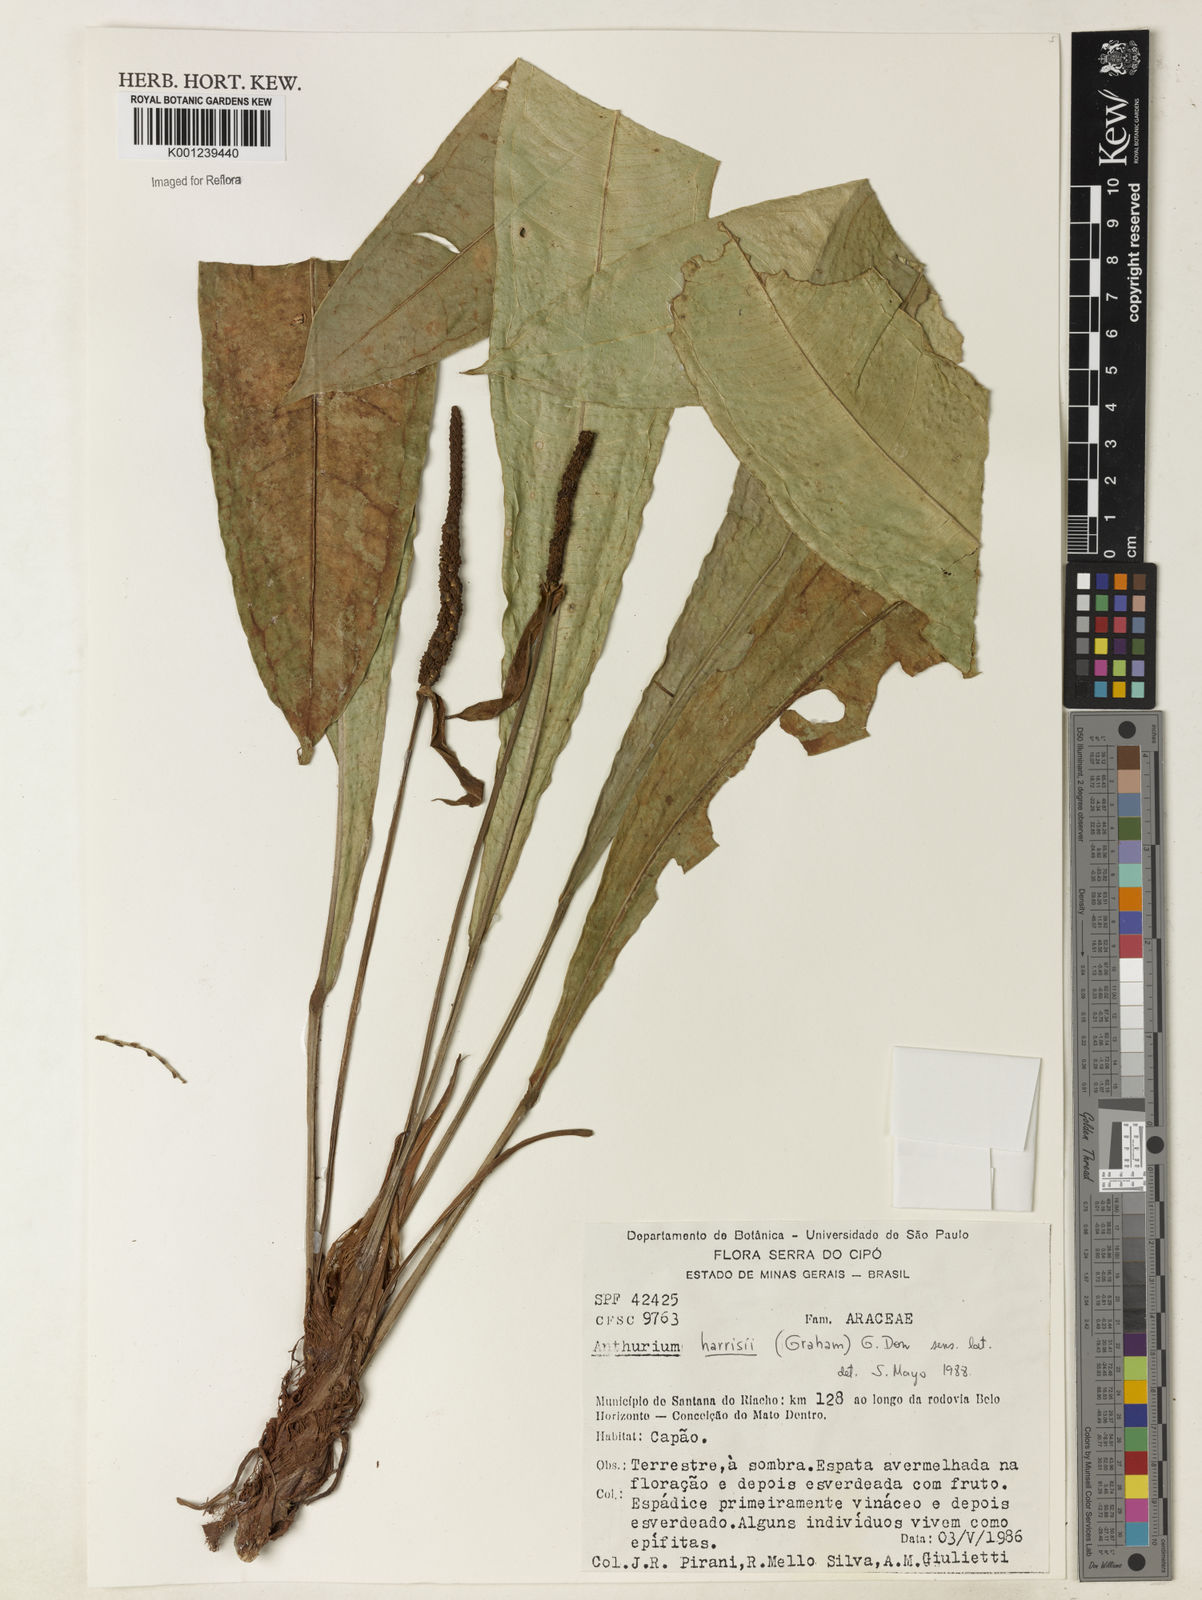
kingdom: Plantae
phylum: Tracheophyta
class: Liliopsida
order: Alismatales
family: Araceae
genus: Anthurium
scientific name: Anthurium harrisii
